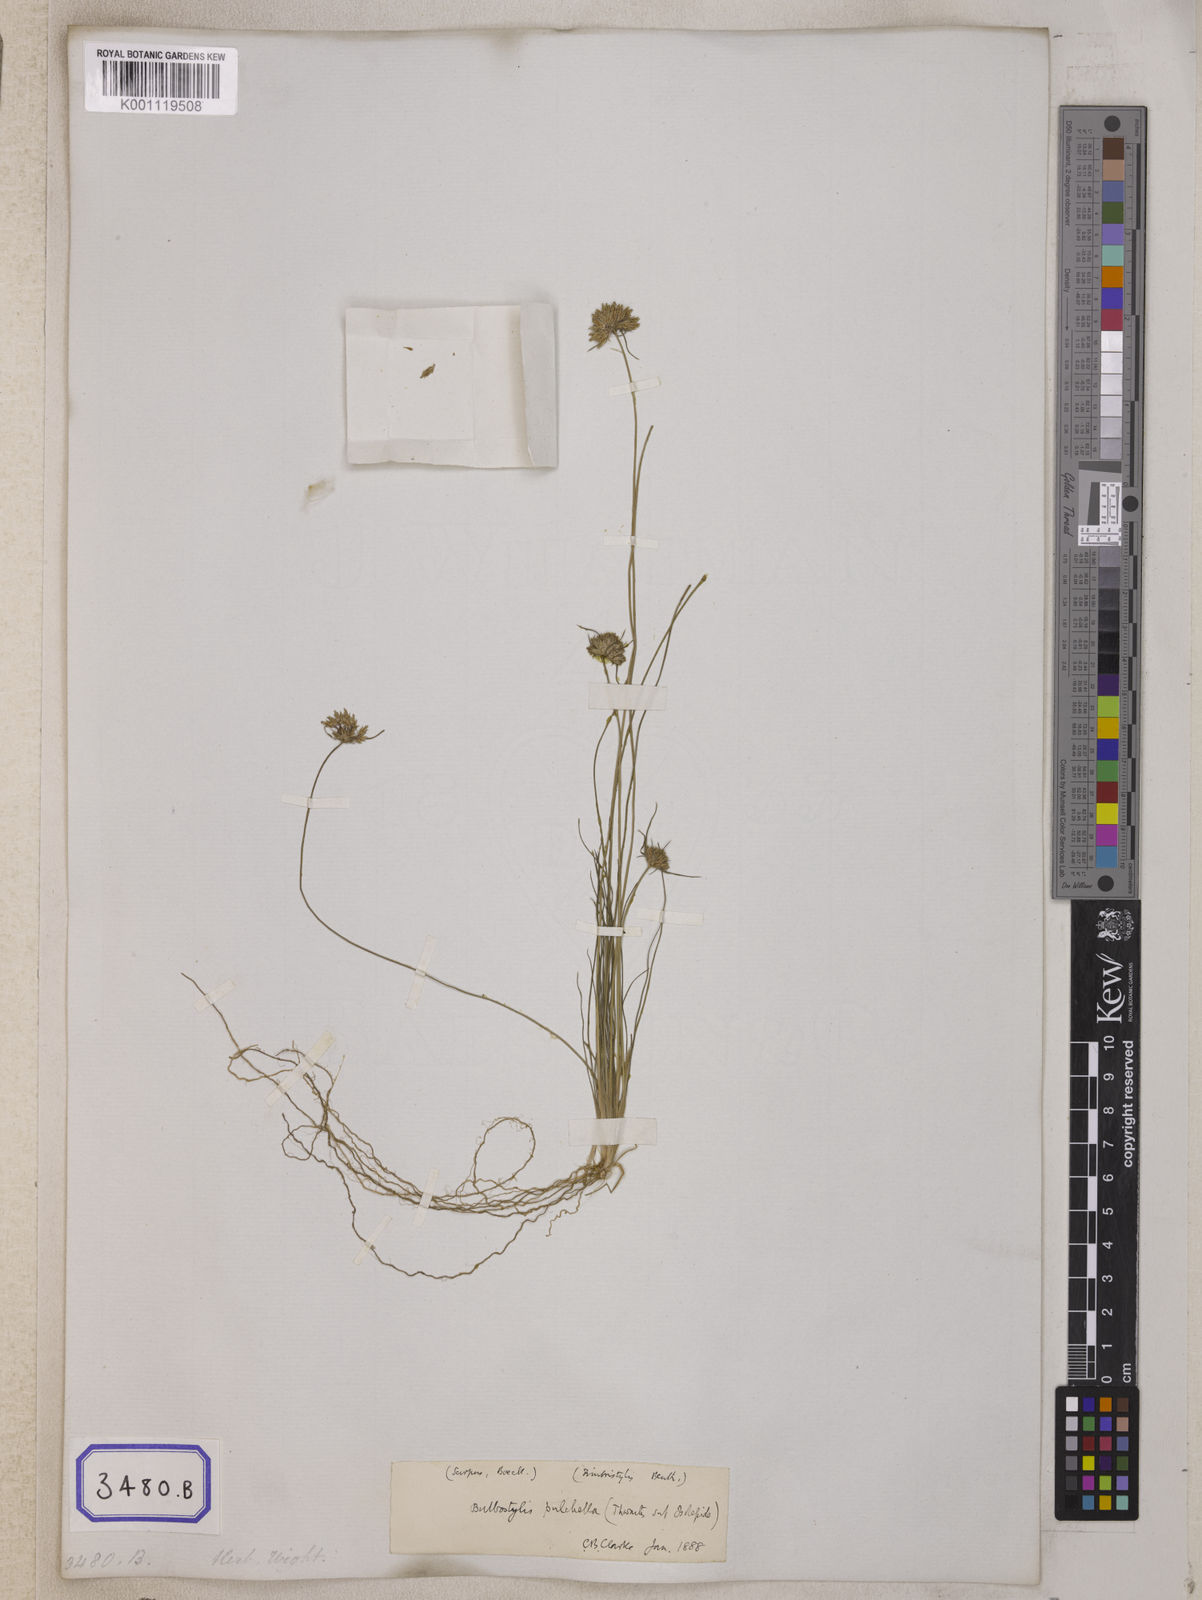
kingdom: Plantae
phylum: Tracheophyta
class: Liliopsida
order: Poales
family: Cyperaceae
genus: Isolepis
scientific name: Isolepis
